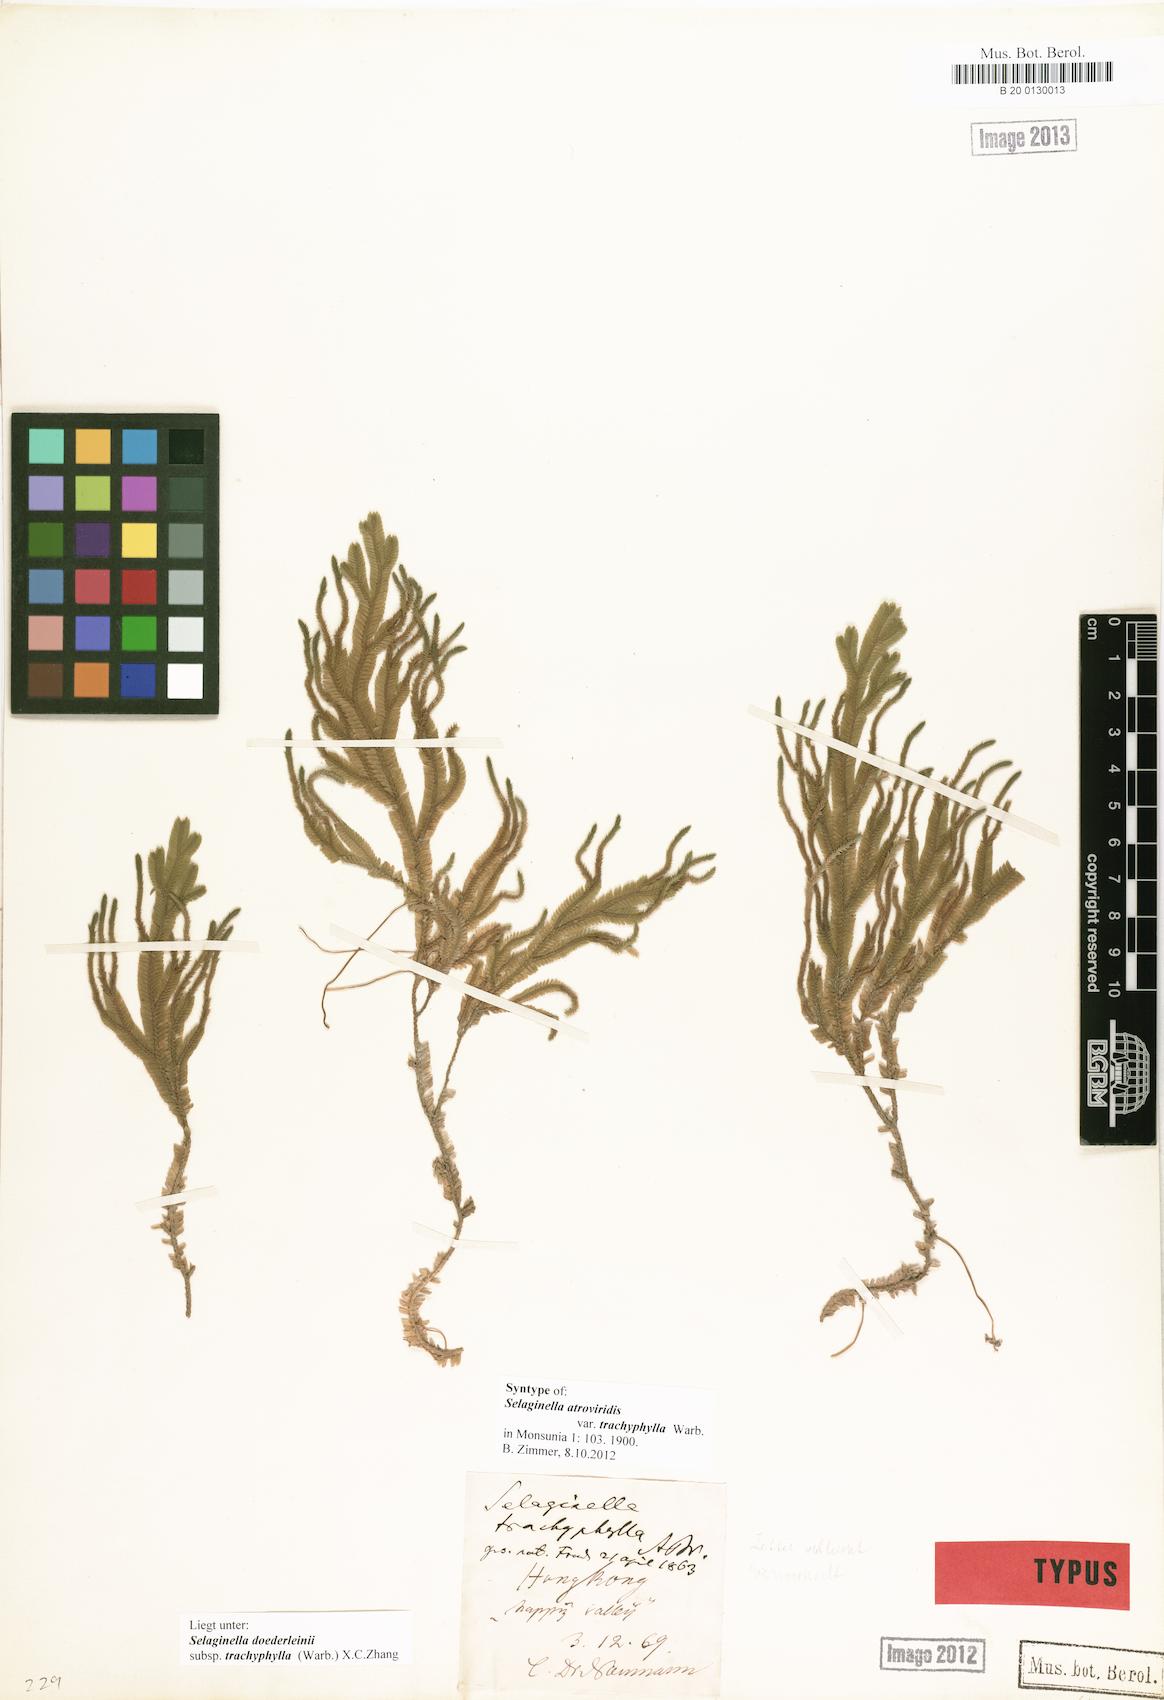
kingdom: Plantae
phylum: Tracheophyta
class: Lycopodiopsida
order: Selaginellales
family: Selaginellaceae
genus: Selaginella
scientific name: Selaginella trachyphylla
